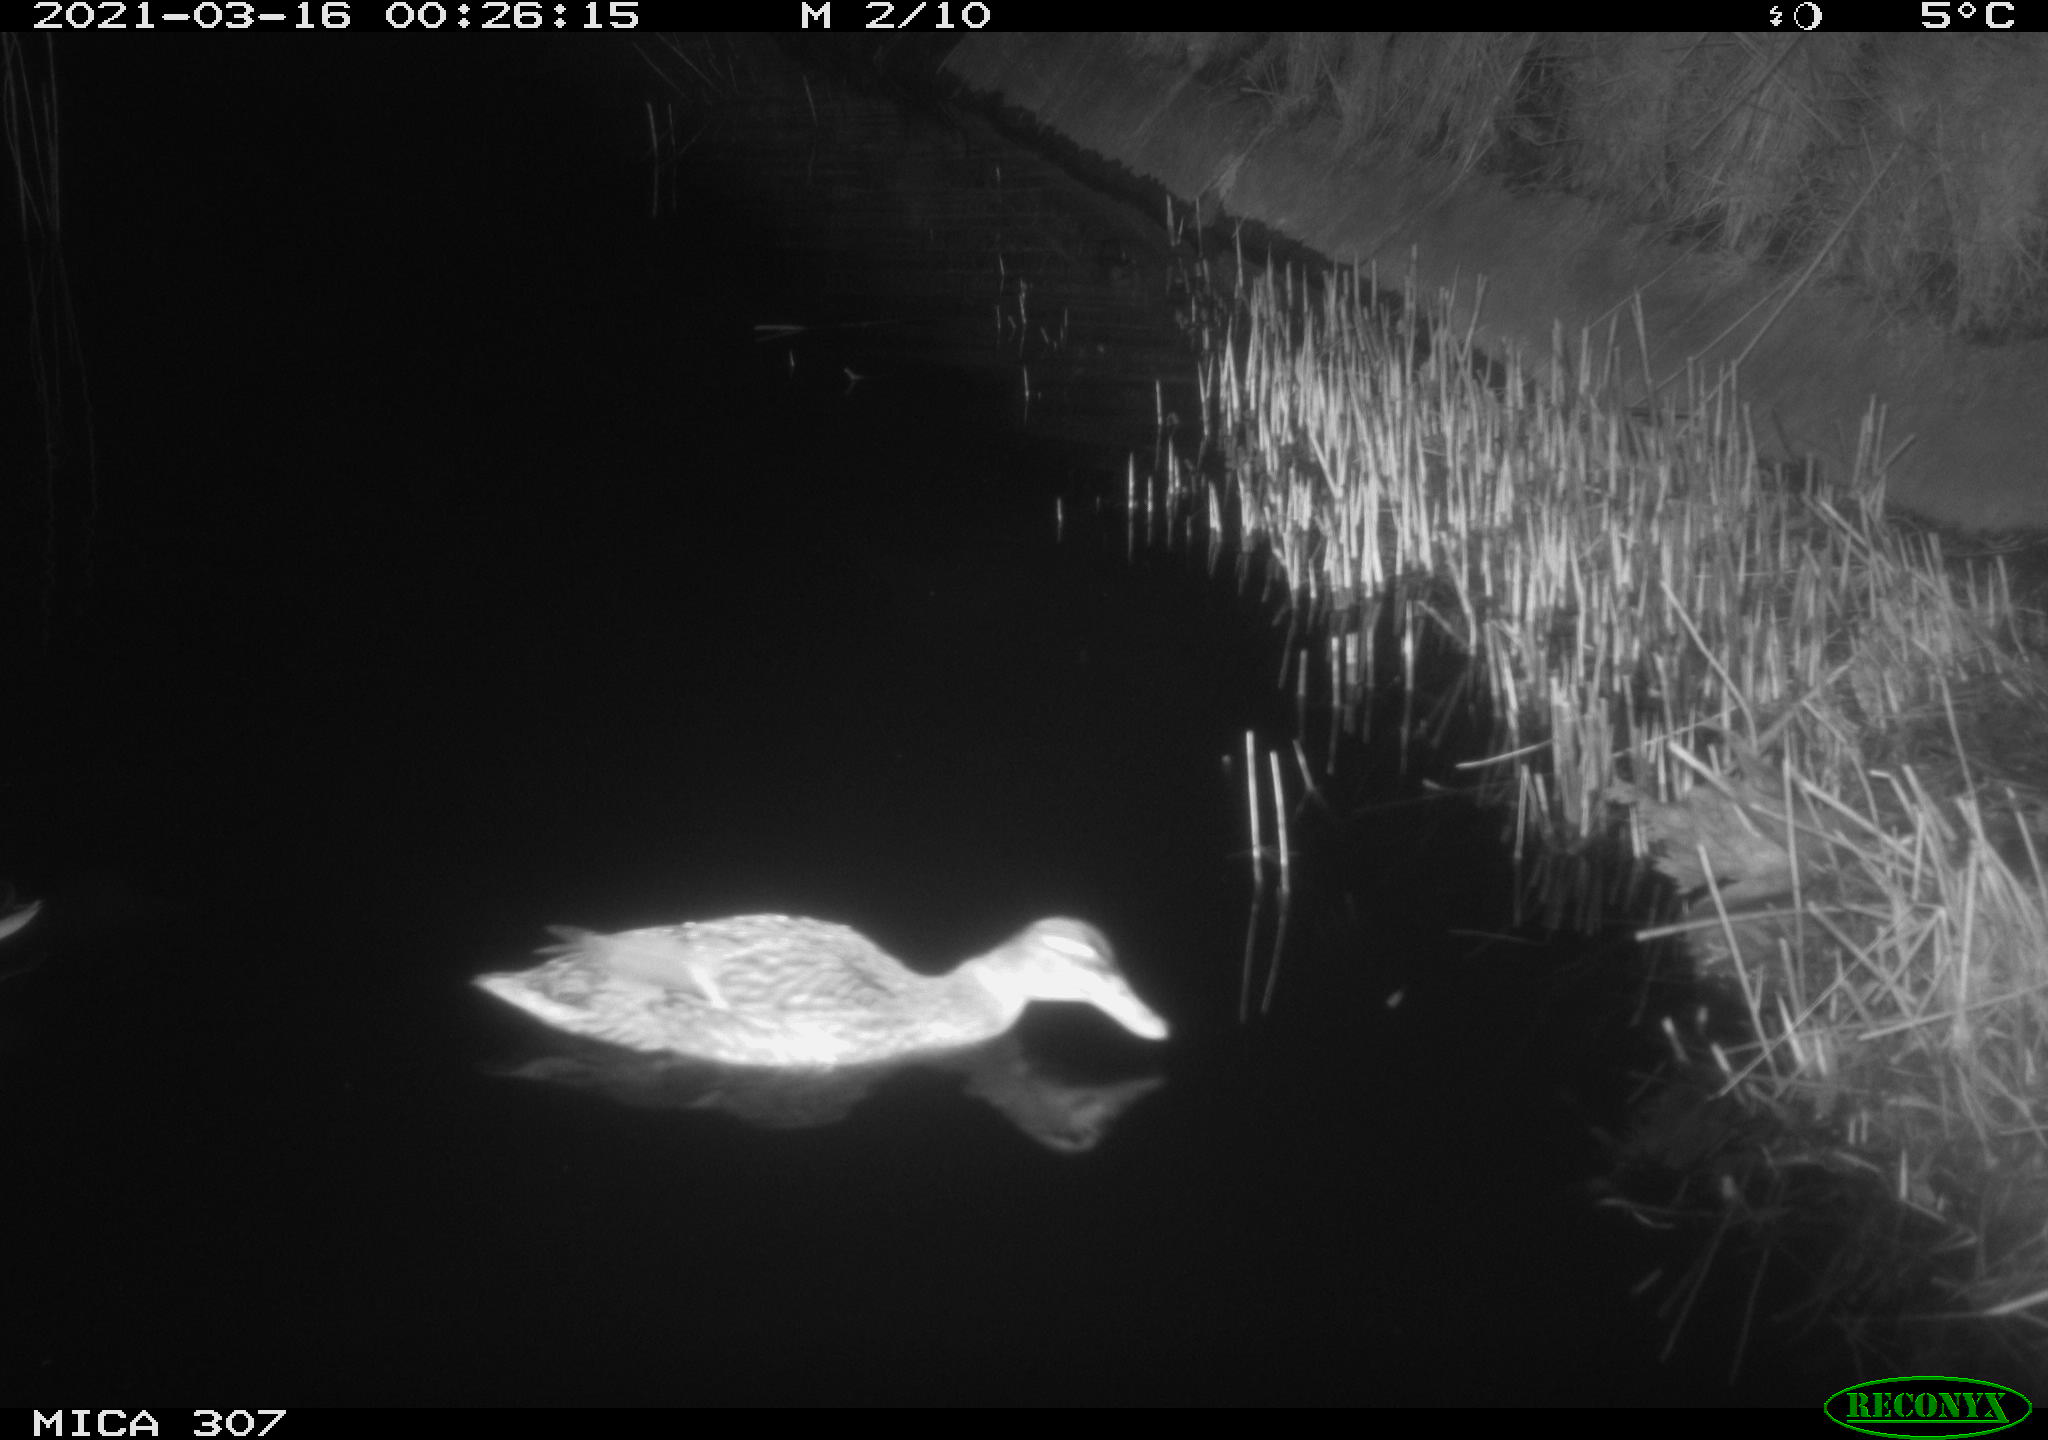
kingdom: Animalia
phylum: Chordata
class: Aves
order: Anseriformes
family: Anatidae
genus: Anas
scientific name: Anas platyrhynchos
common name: Mallard
